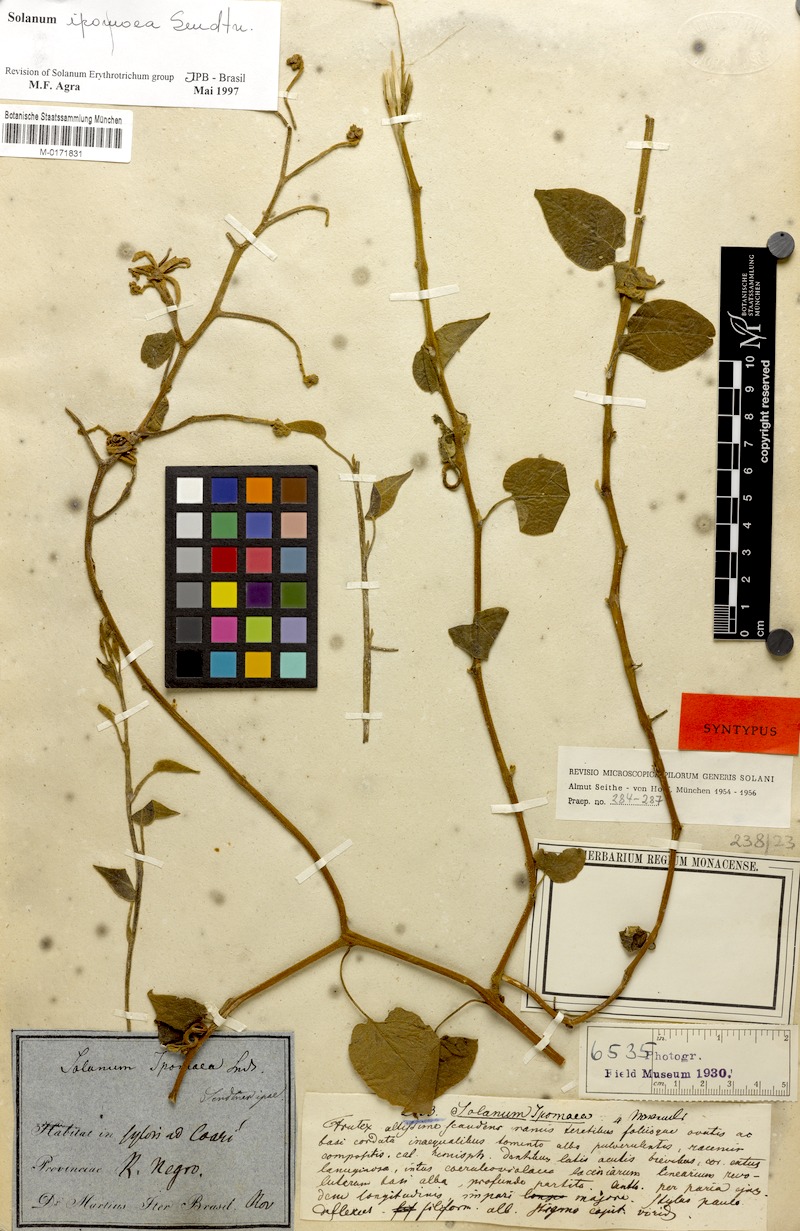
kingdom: Plantae
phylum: Tracheophyta
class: Magnoliopsida
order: Solanales
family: Solanaceae
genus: Solanum
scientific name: Solanum uncinellum
